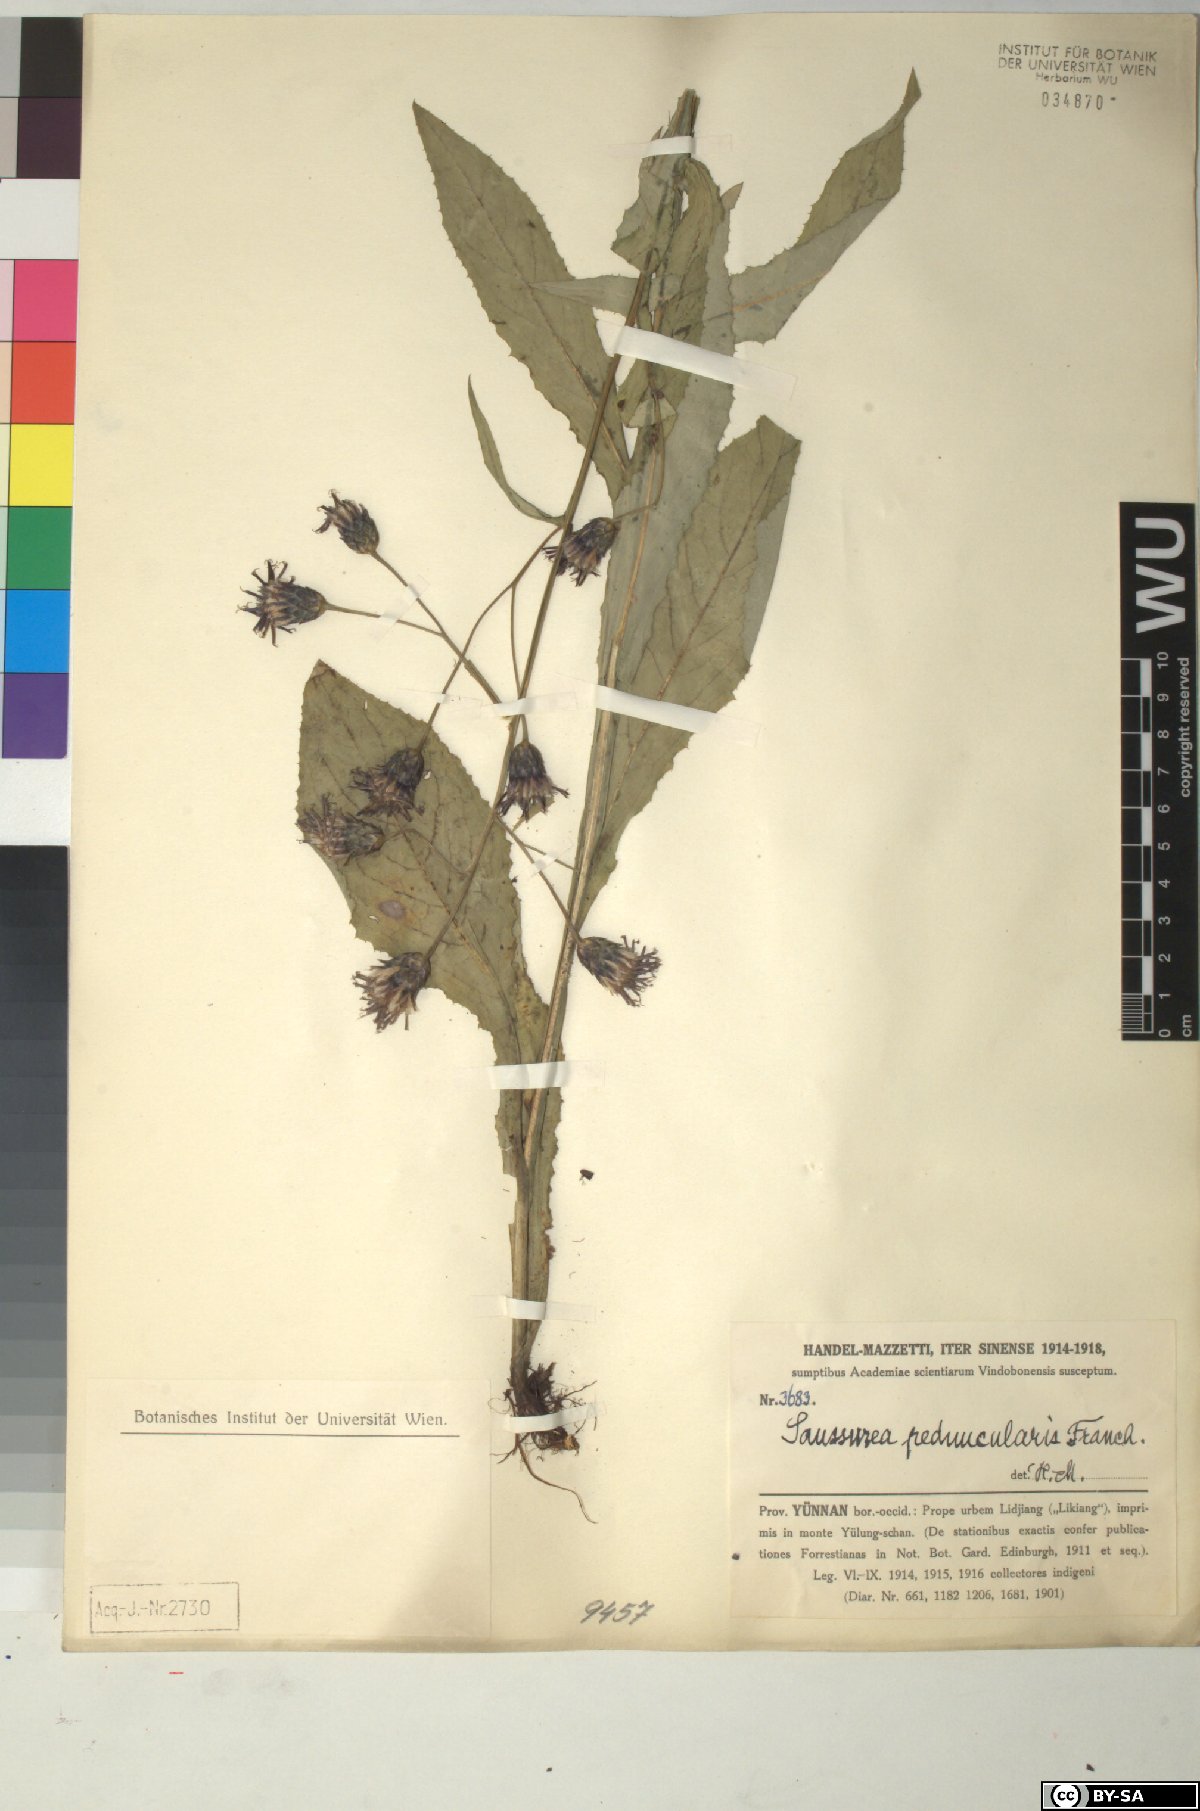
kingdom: Plantae
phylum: Tracheophyta
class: Magnoliopsida
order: Asterales
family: Asteraceae
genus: Saussurea
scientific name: Saussurea peduncularis
